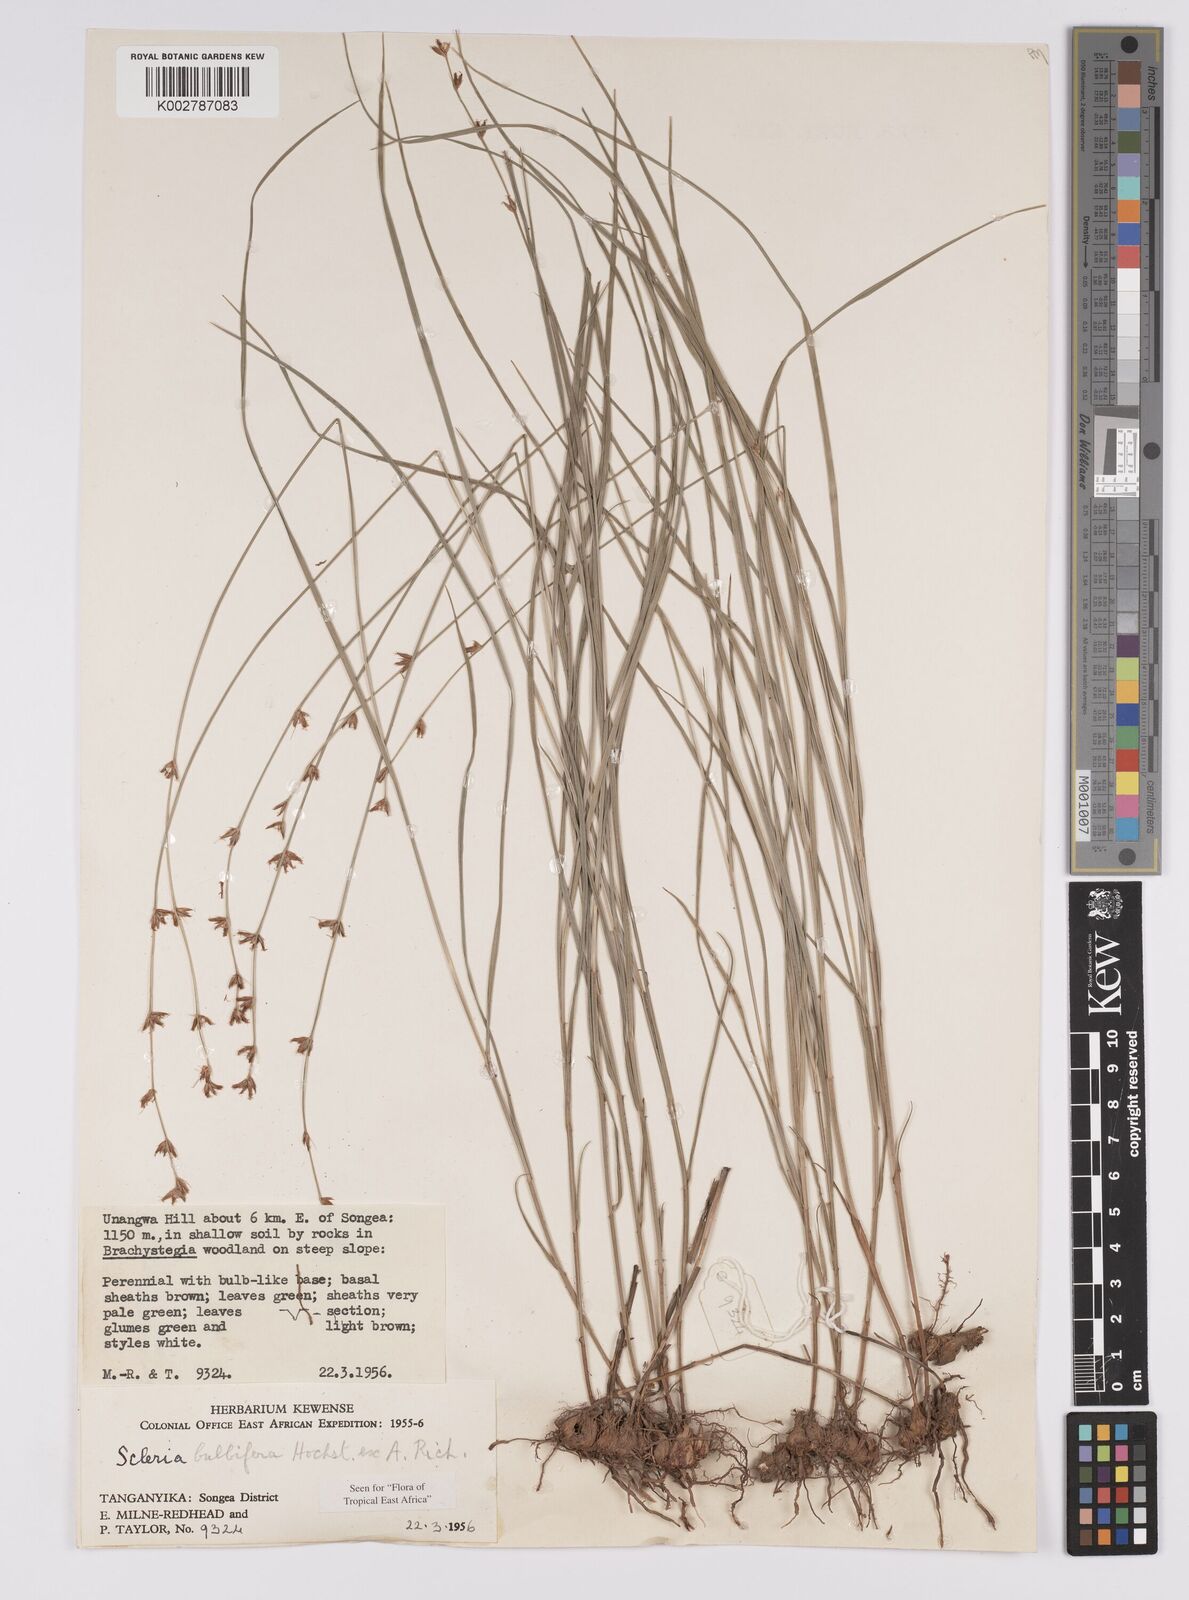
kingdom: Plantae
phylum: Tracheophyta
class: Liliopsida
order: Poales
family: Cyperaceae
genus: Scleria
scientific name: Scleria bulbifera
